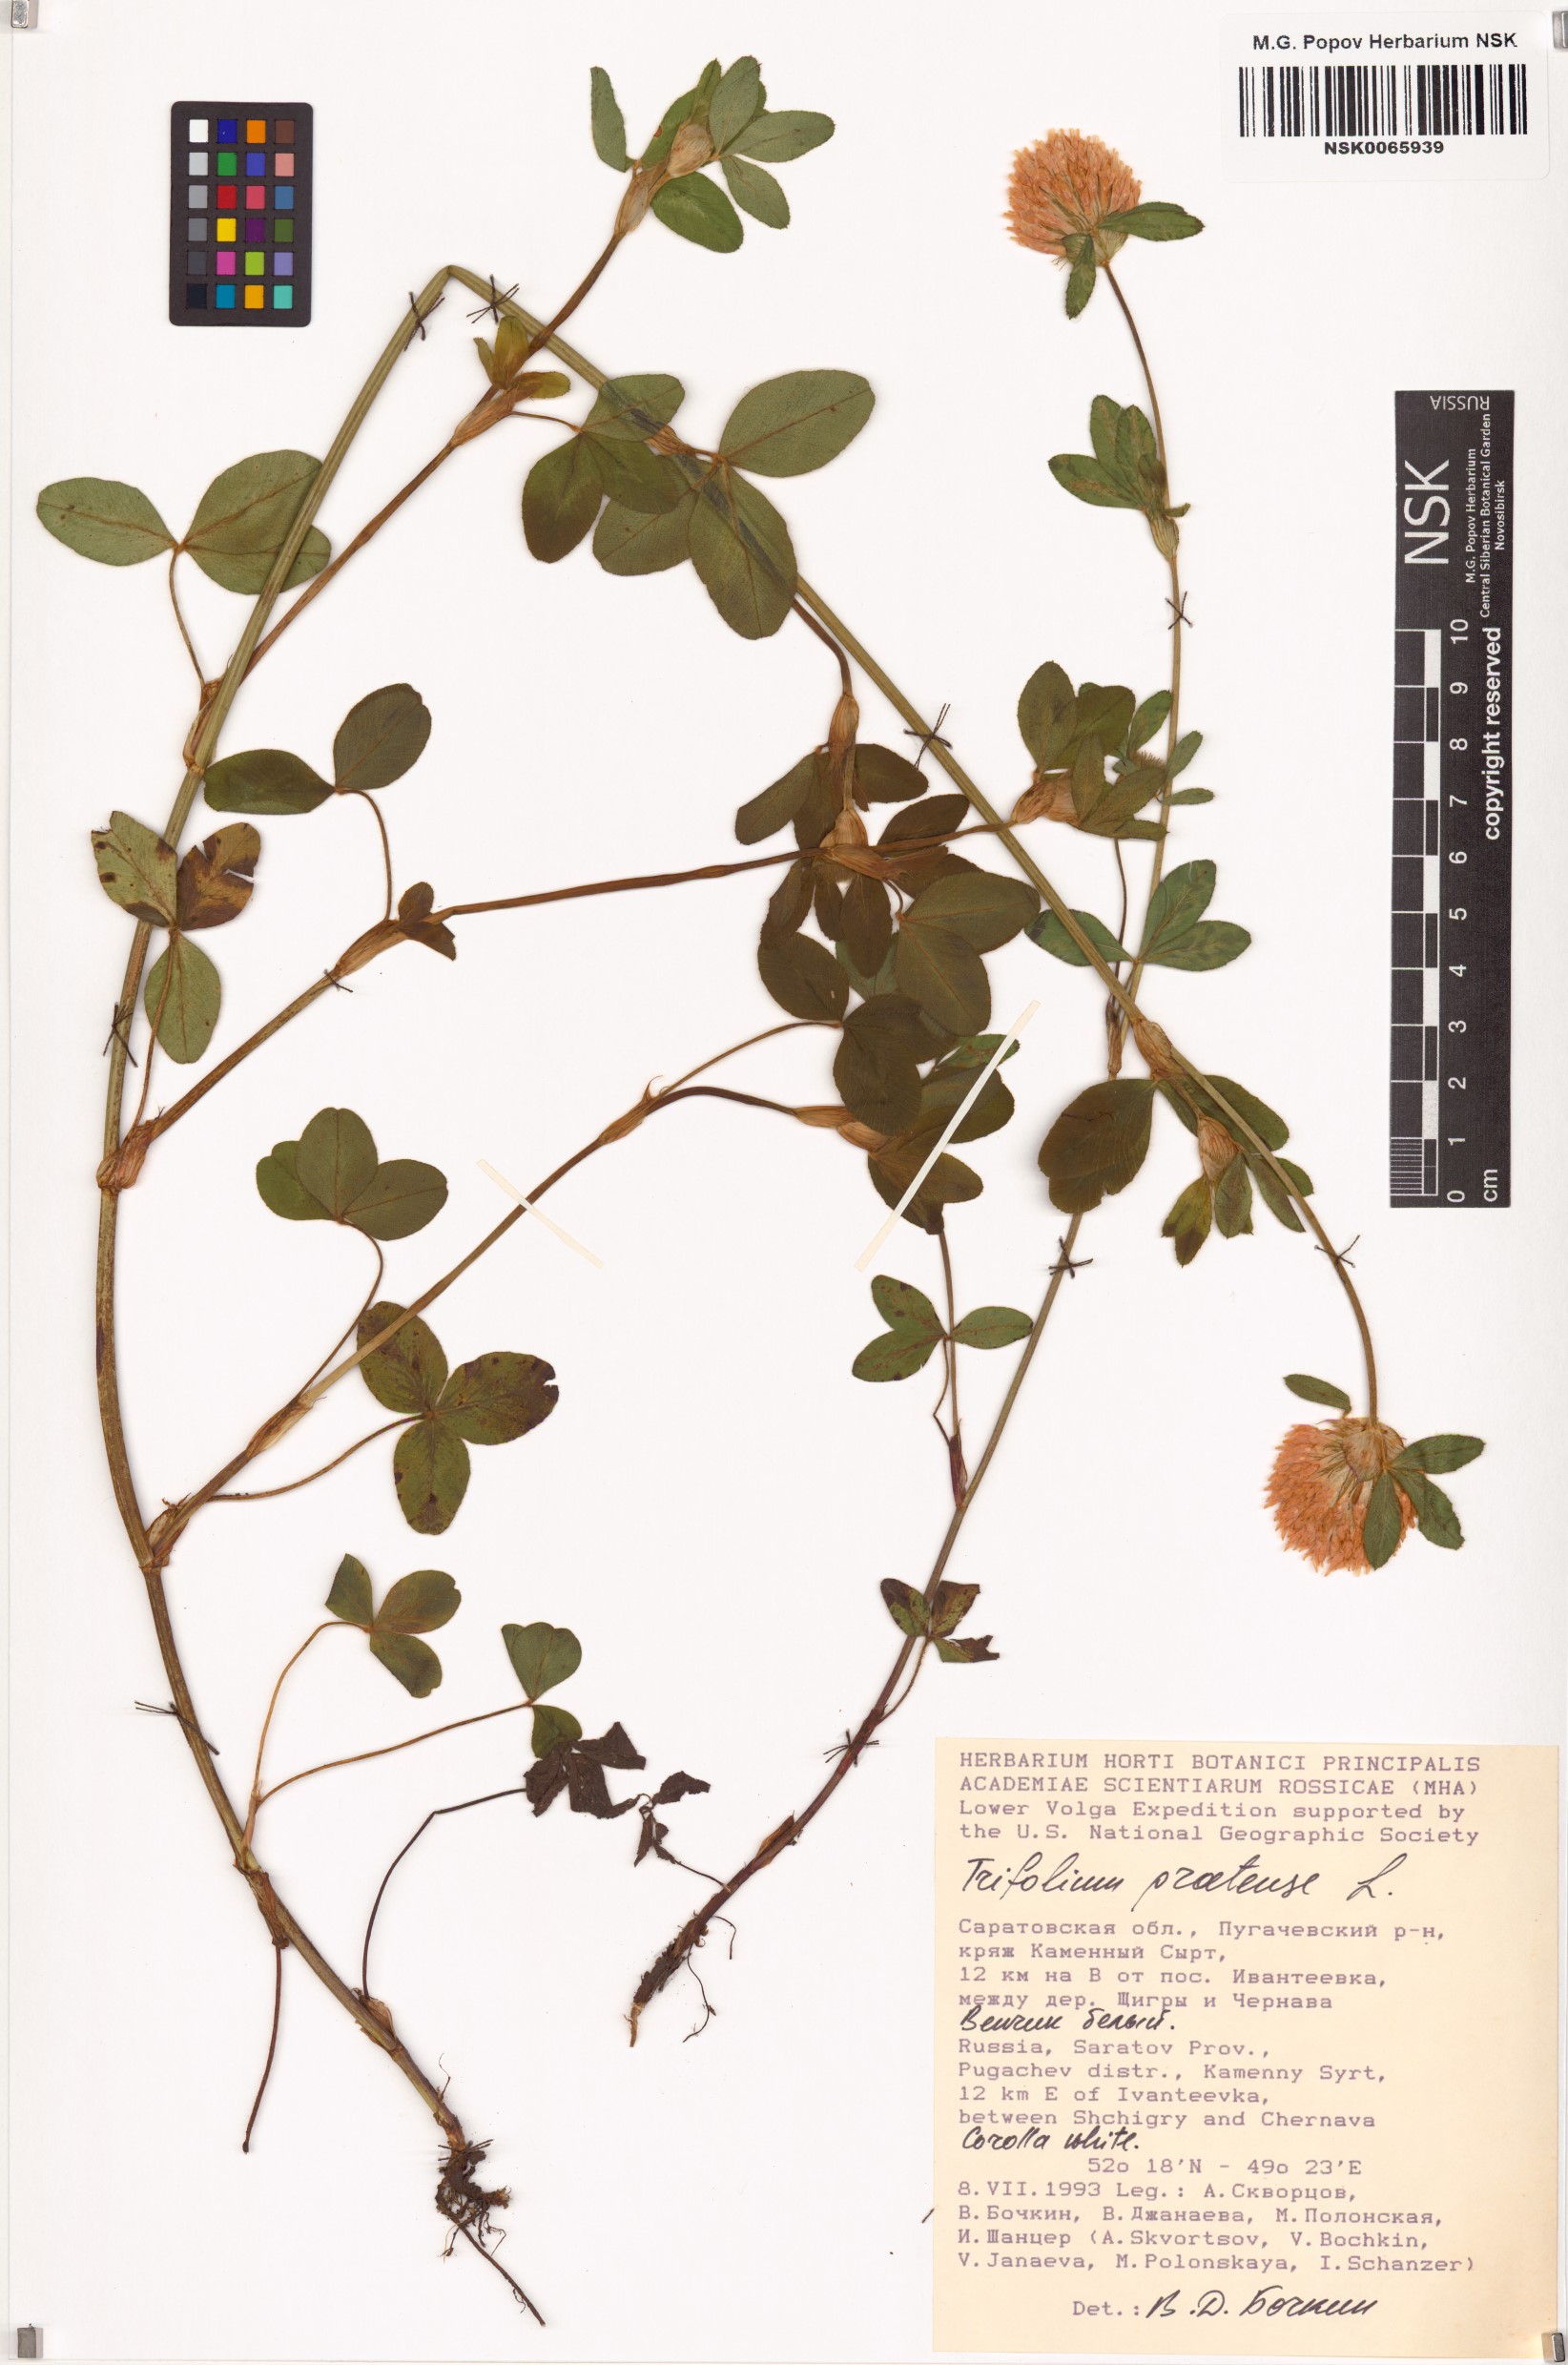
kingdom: Plantae
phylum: Tracheophyta
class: Magnoliopsida
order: Fabales
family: Fabaceae
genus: Trifolium
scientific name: Trifolium pratense
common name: Red clover
